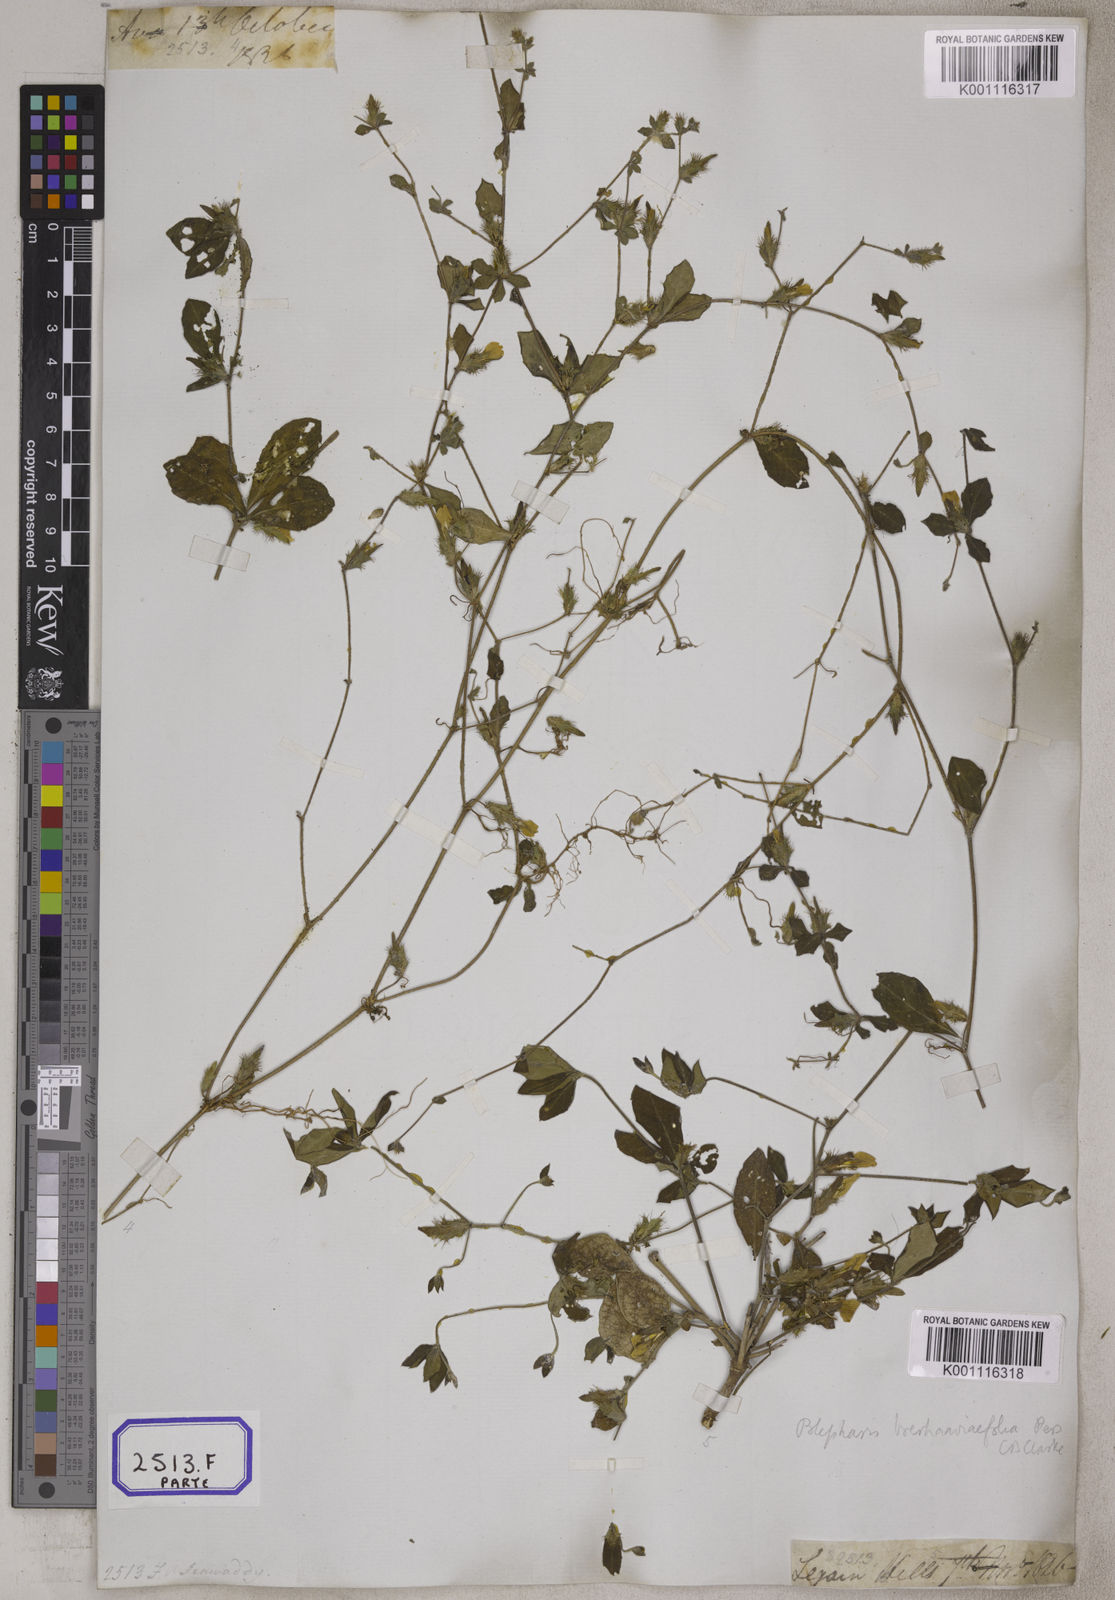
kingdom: Plantae
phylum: Tracheophyta
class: Magnoliopsida
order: Lamiales
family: Acanthaceae
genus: Blepharis
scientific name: Blepharis
